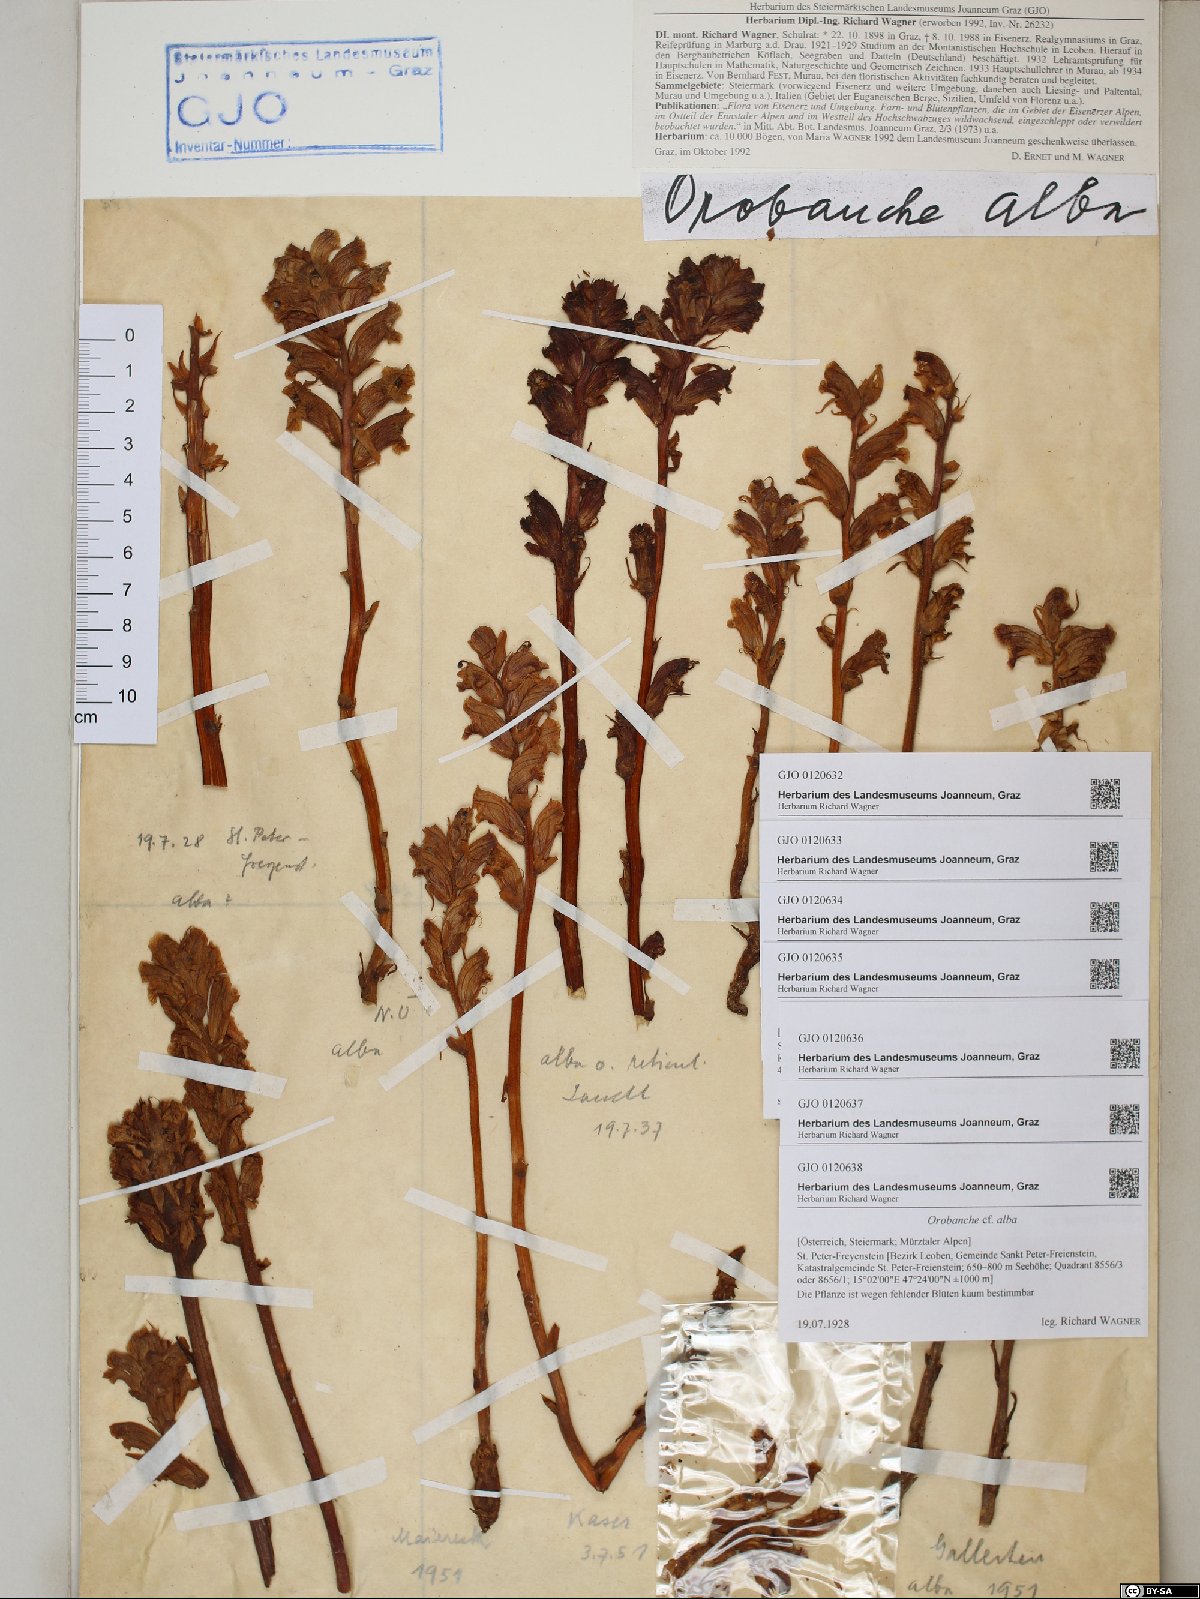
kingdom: Plantae
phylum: Tracheophyta
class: Magnoliopsida
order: Lamiales
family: Orobanchaceae
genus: Orobanche
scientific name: Orobanche alba
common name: Thyme broomrape
